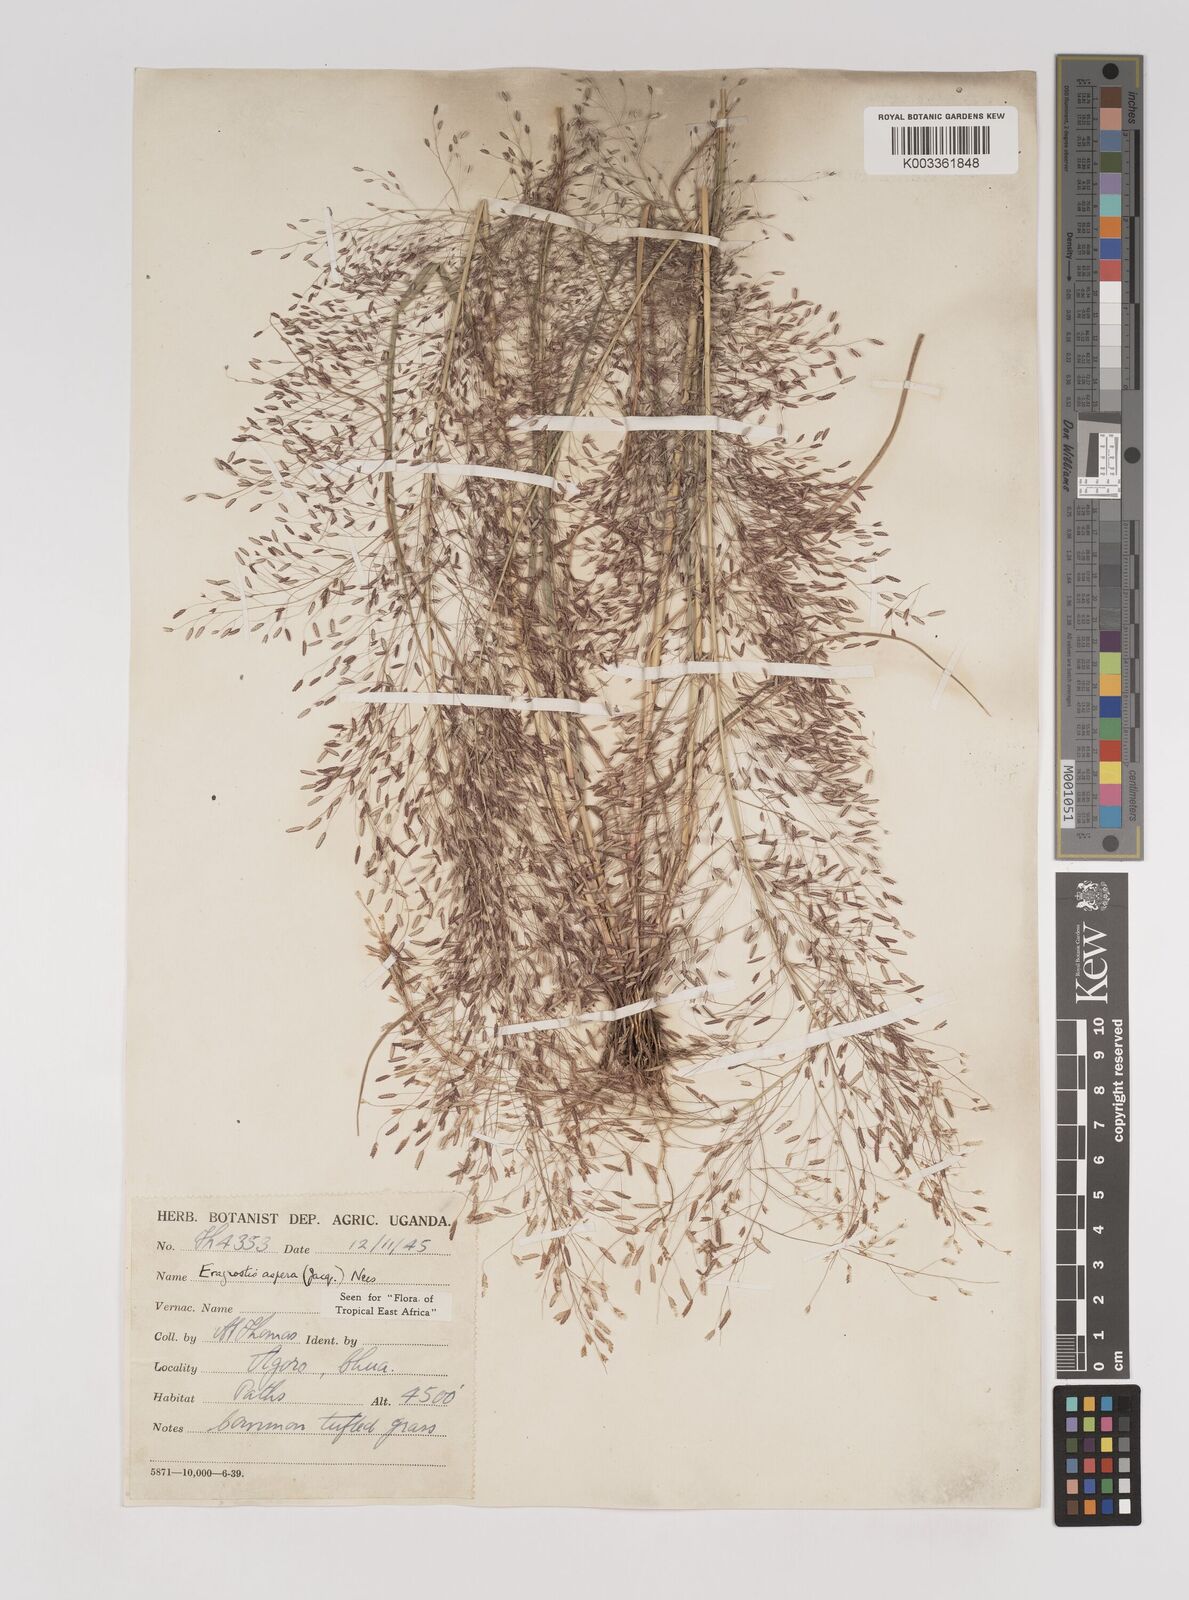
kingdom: Plantae
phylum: Tracheophyta
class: Liliopsida
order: Poales
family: Poaceae
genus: Eragrostis
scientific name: Eragrostis aspera
